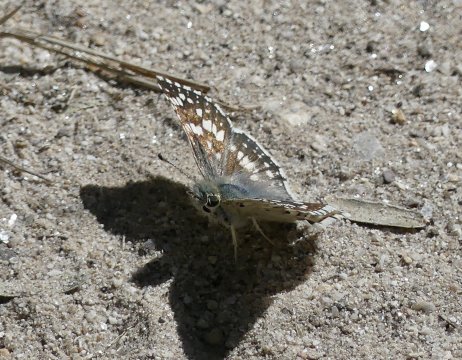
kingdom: Animalia
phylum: Arthropoda
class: Insecta
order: Lepidoptera
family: Hesperiidae
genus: Pyrgus
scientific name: Pyrgus communis
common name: White Checkered-Skipper
